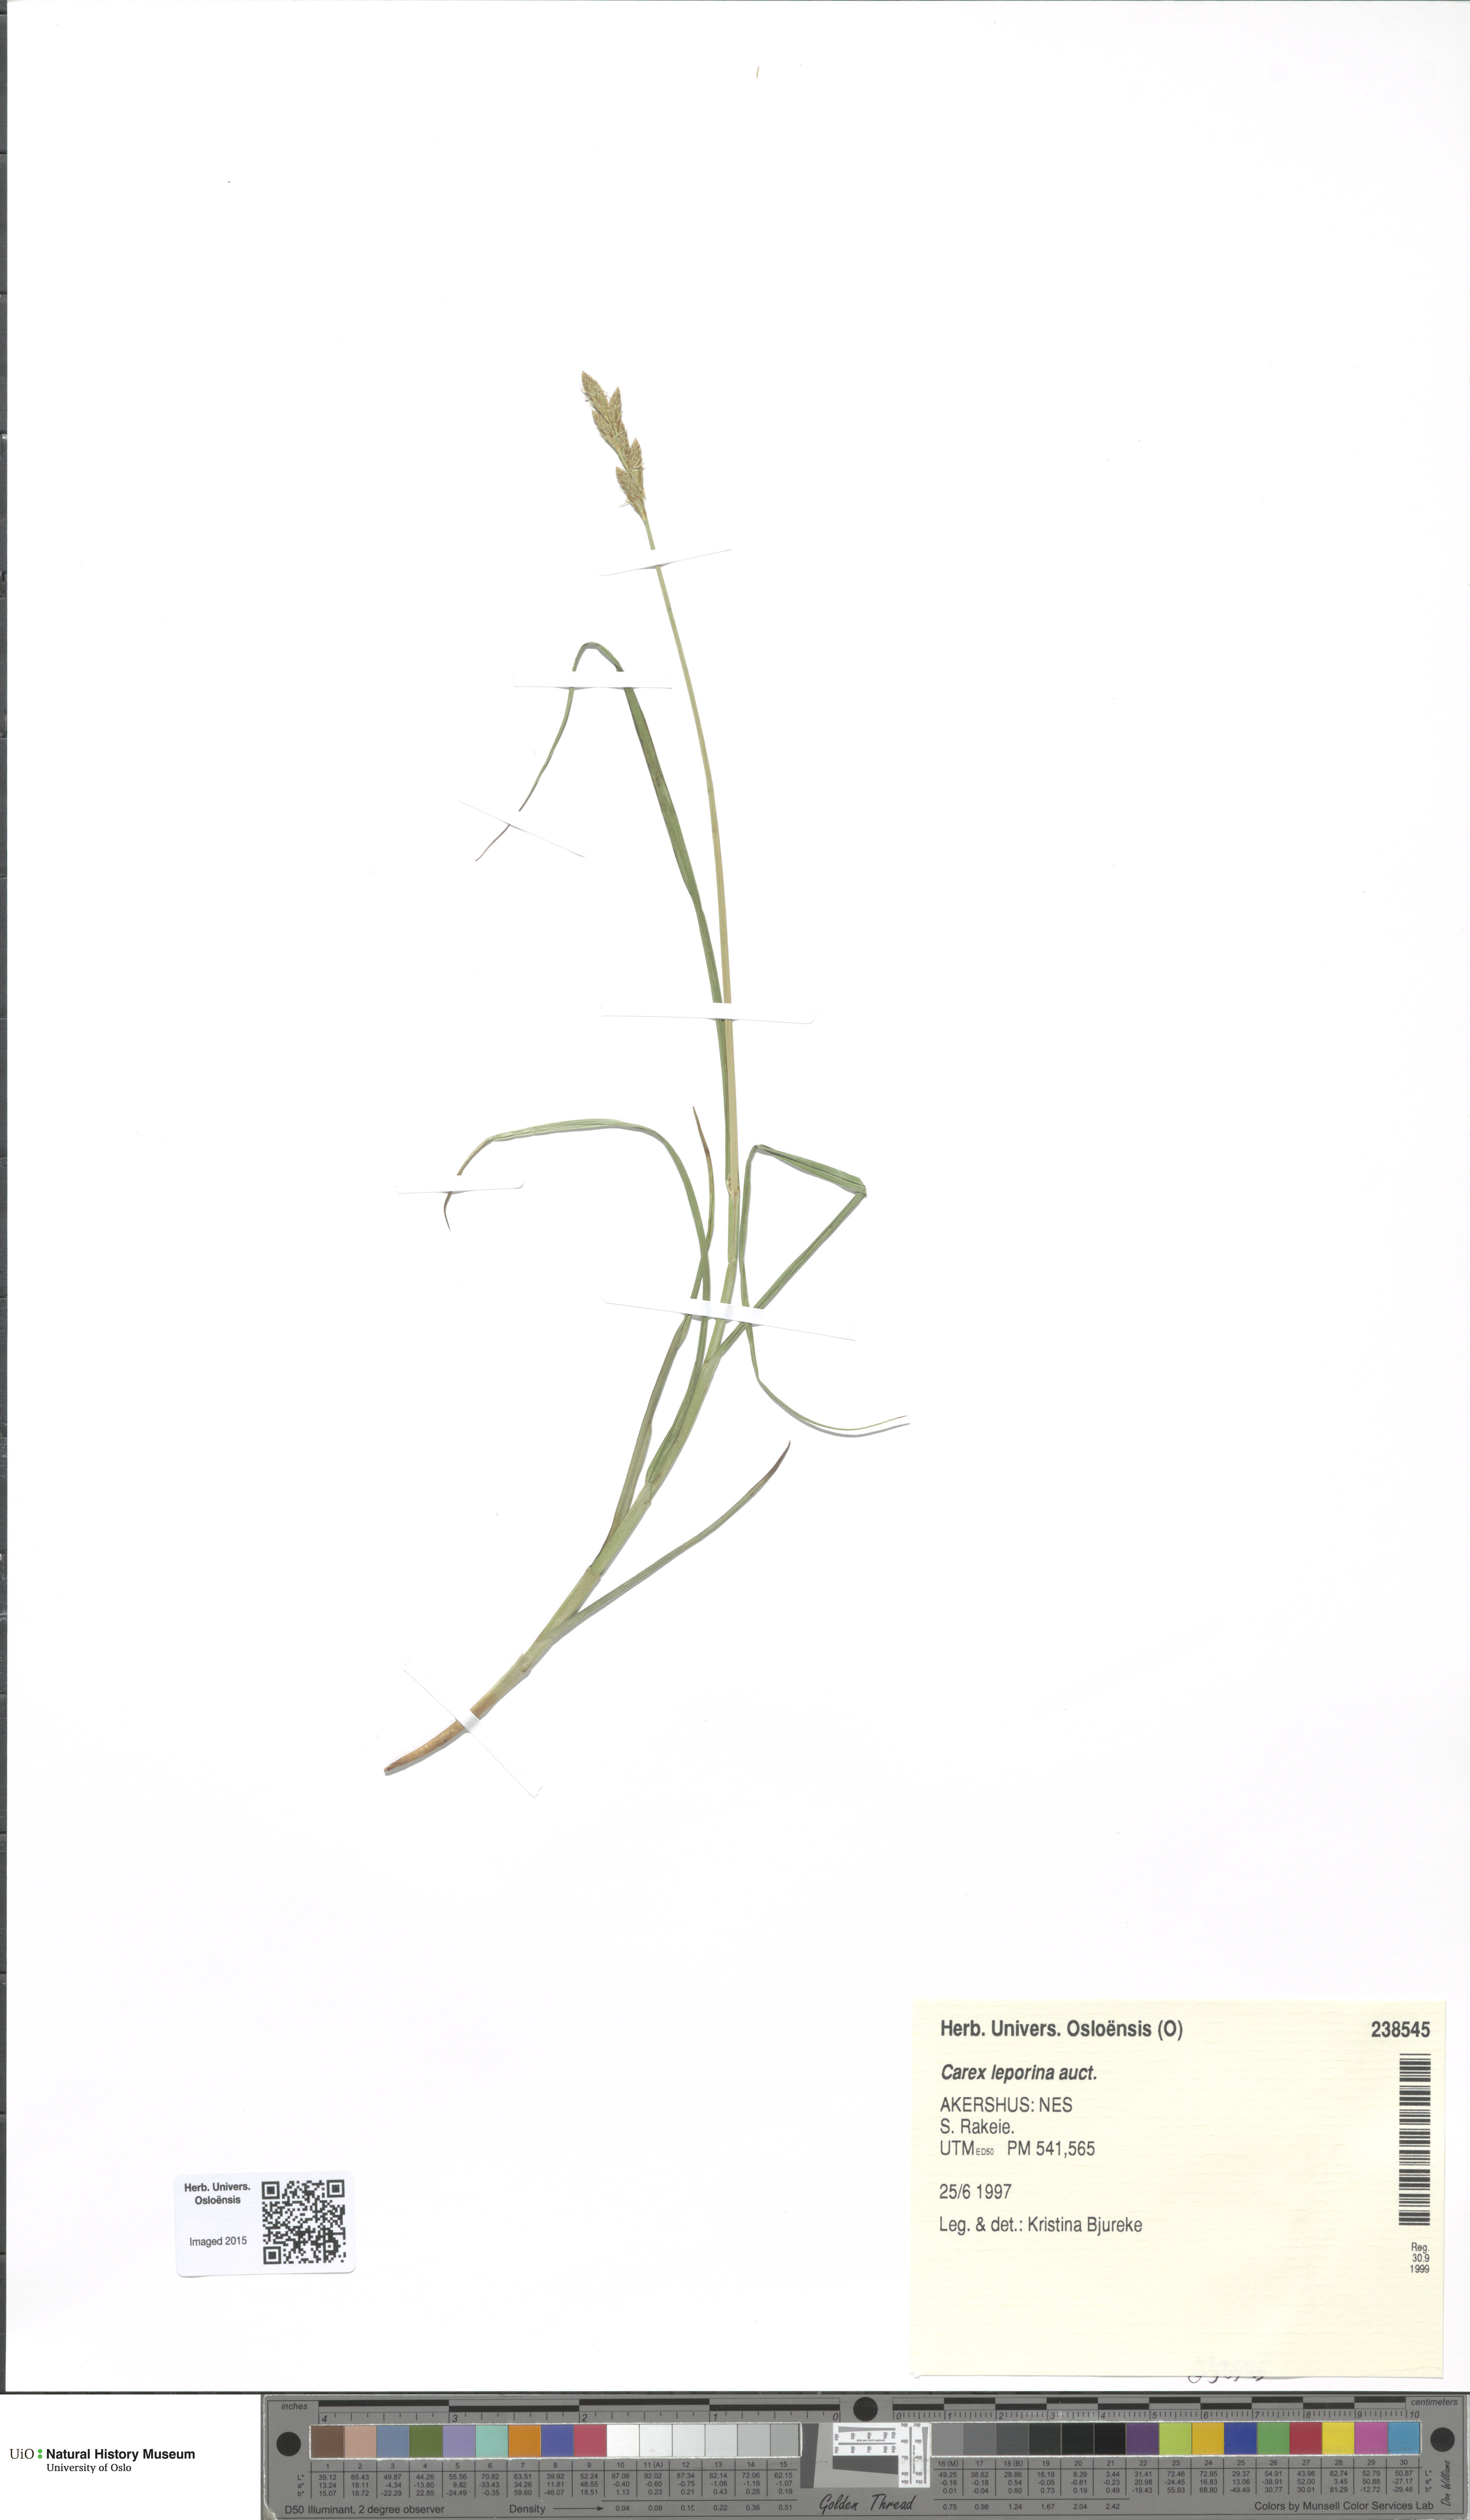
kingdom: Plantae
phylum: Tracheophyta
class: Liliopsida
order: Poales
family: Cyperaceae
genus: Carex
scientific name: Carex leporina
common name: Oval sedge
